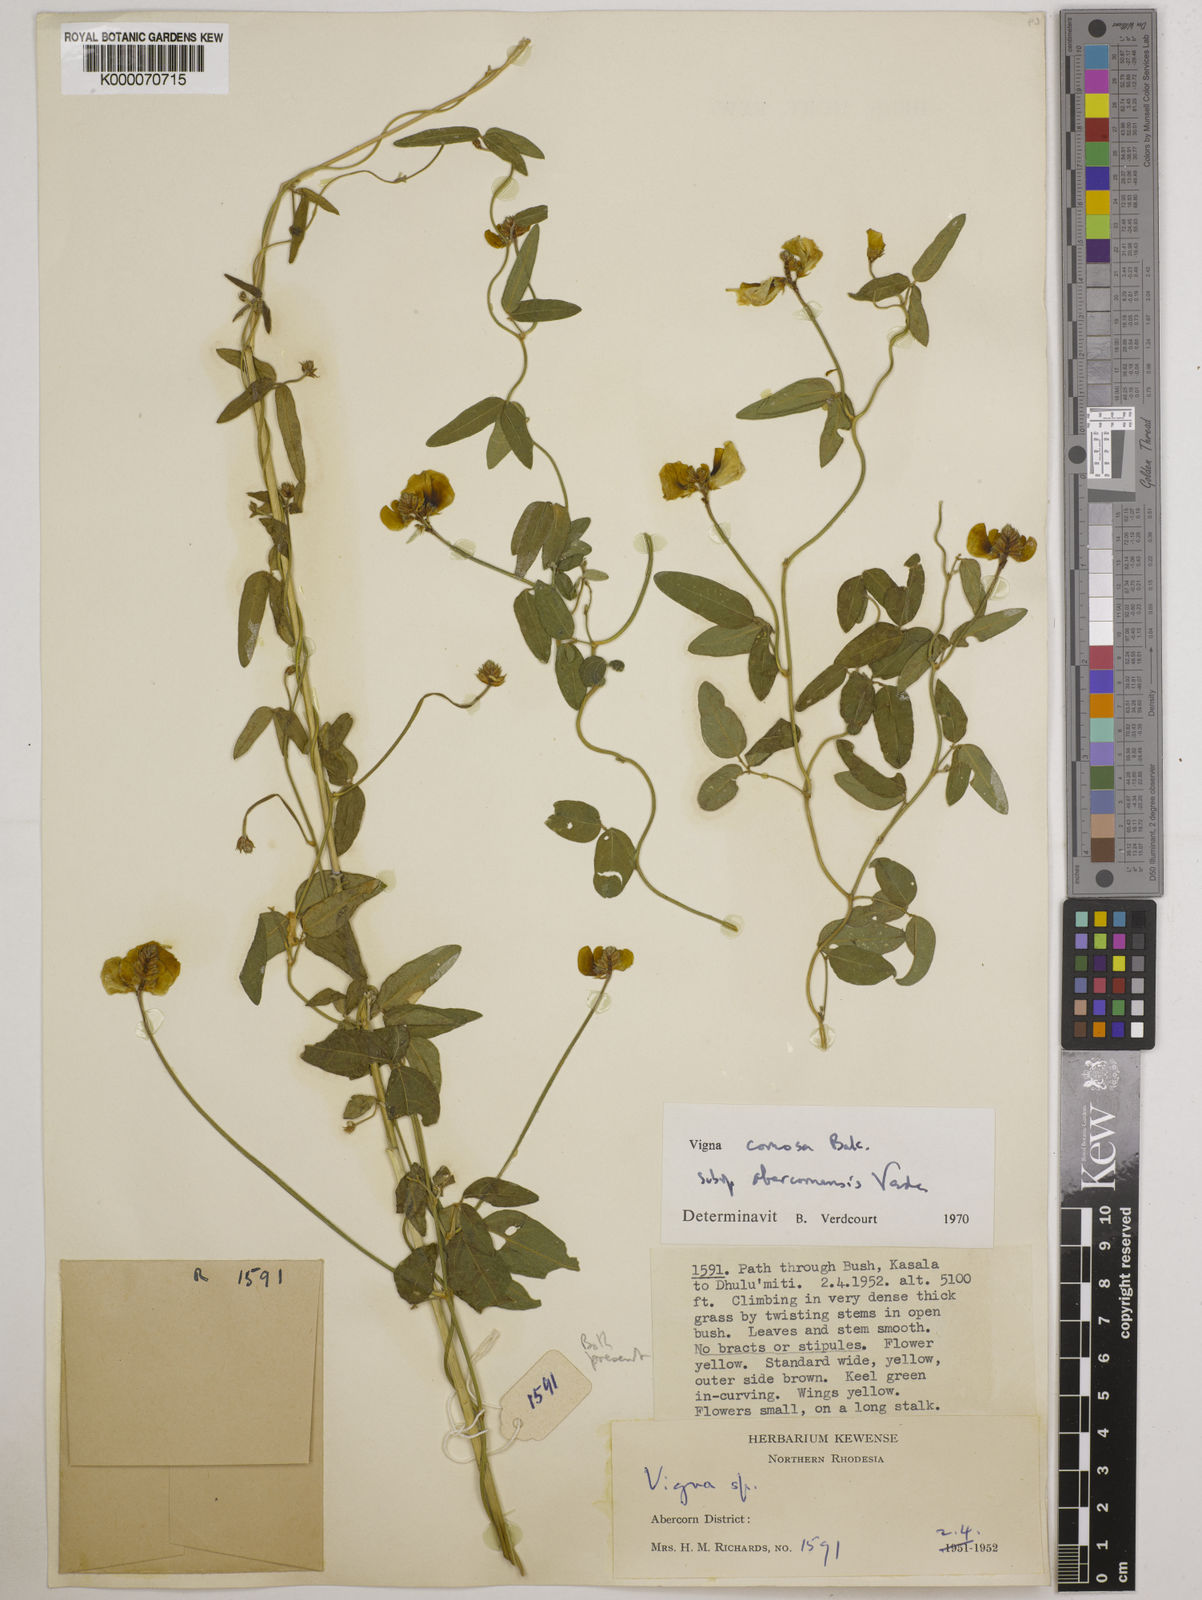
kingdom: Plantae
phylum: Tracheophyta
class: Magnoliopsida
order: Fabales
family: Fabaceae
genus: Vigna
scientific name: Vigna comosa
